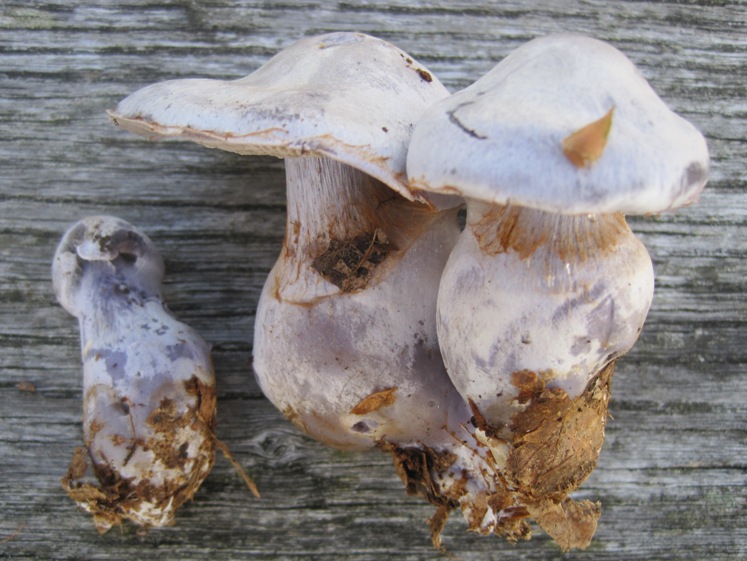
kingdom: Fungi
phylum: Basidiomycota
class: Agaricomycetes
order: Agaricales
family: Cortinariaceae
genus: Cortinarius
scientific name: Cortinarius alboviolaceus
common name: lysviolet slørhat
